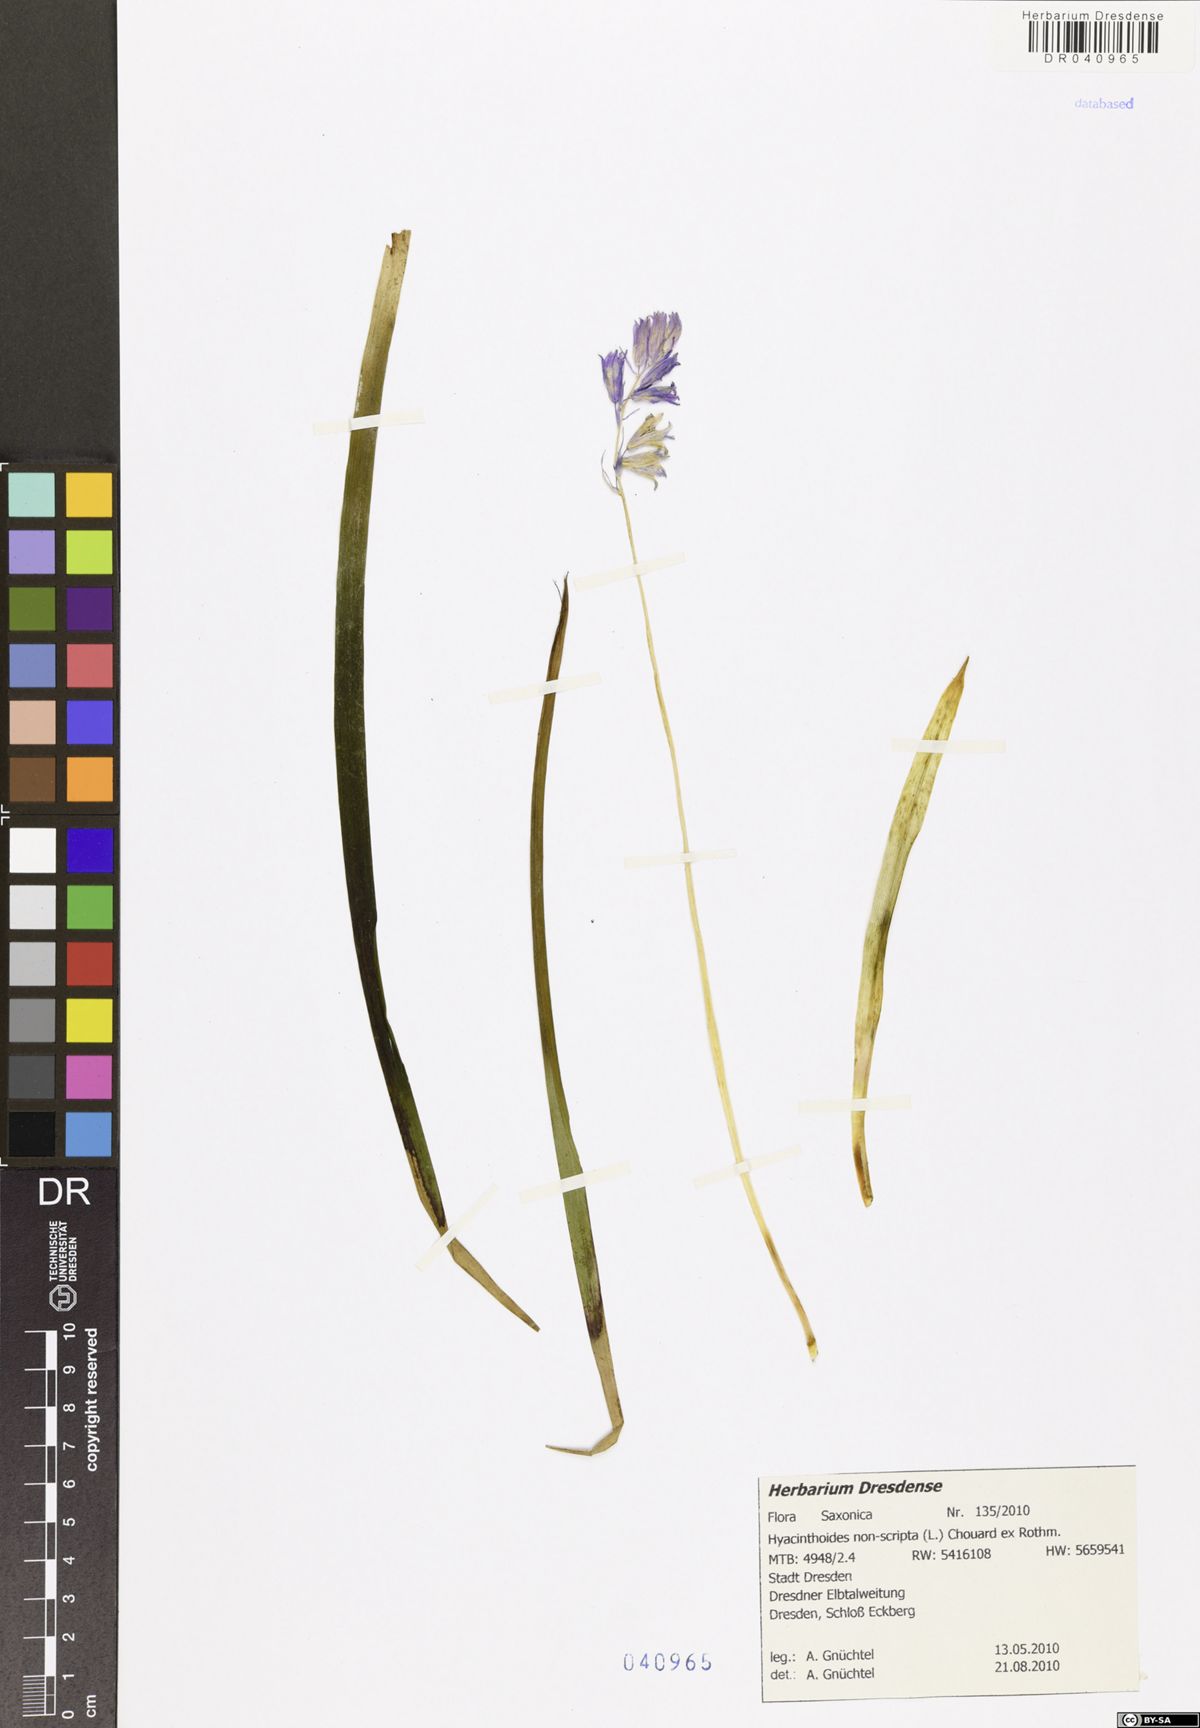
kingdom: Plantae
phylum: Tracheophyta
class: Liliopsida
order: Asparagales
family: Asparagaceae
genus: Hyacinthoides
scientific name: Hyacinthoides non-scripta
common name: Bluebell
